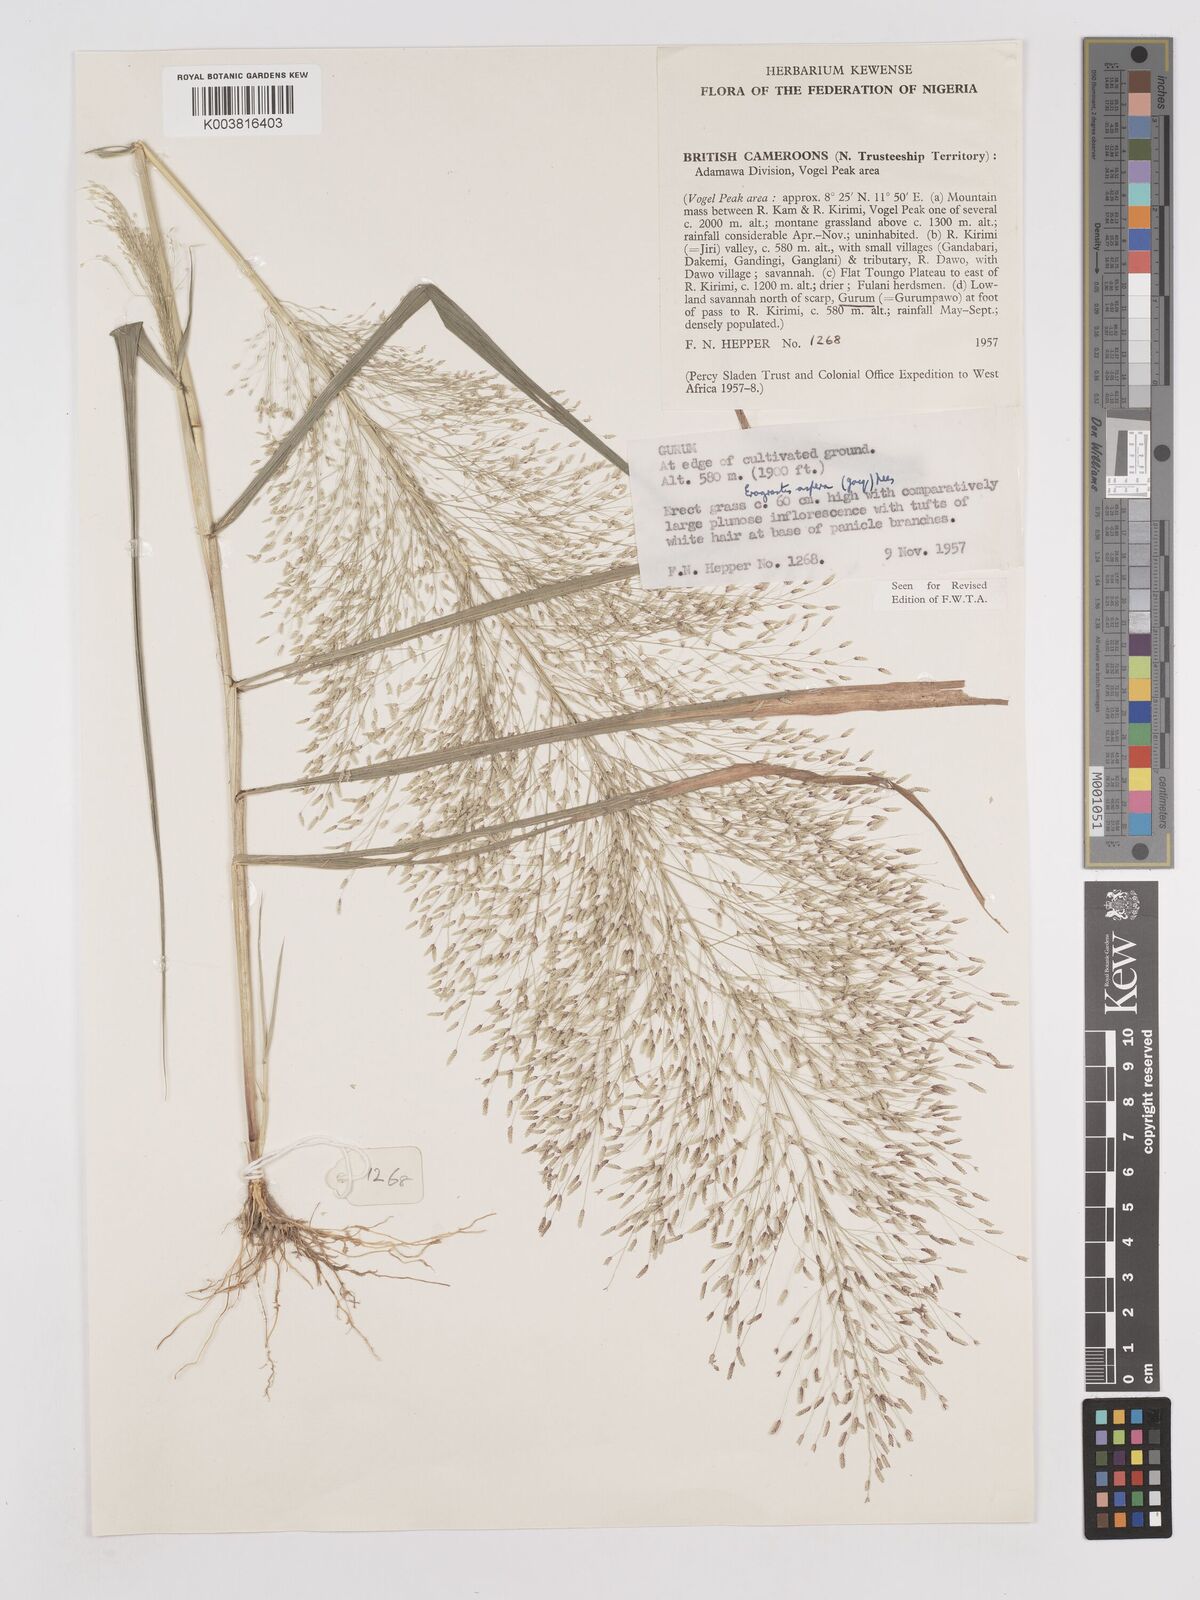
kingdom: Plantae
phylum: Tracheophyta
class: Liliopsida
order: Poales
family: Poaceae
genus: Eragrostis
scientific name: Eragrostis aspera
